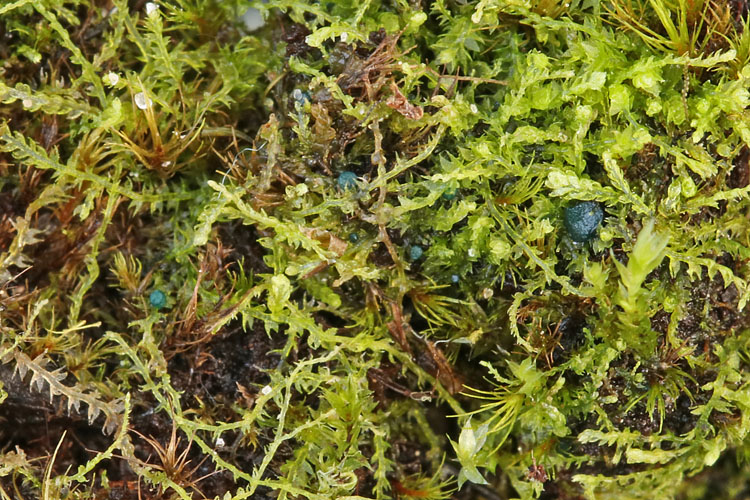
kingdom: Fungi
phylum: Ascomycota
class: Leotiomycetes
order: Leotiales
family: Mniaeciaceae
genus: Mniaecia
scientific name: Mniaecia jungermanniae
